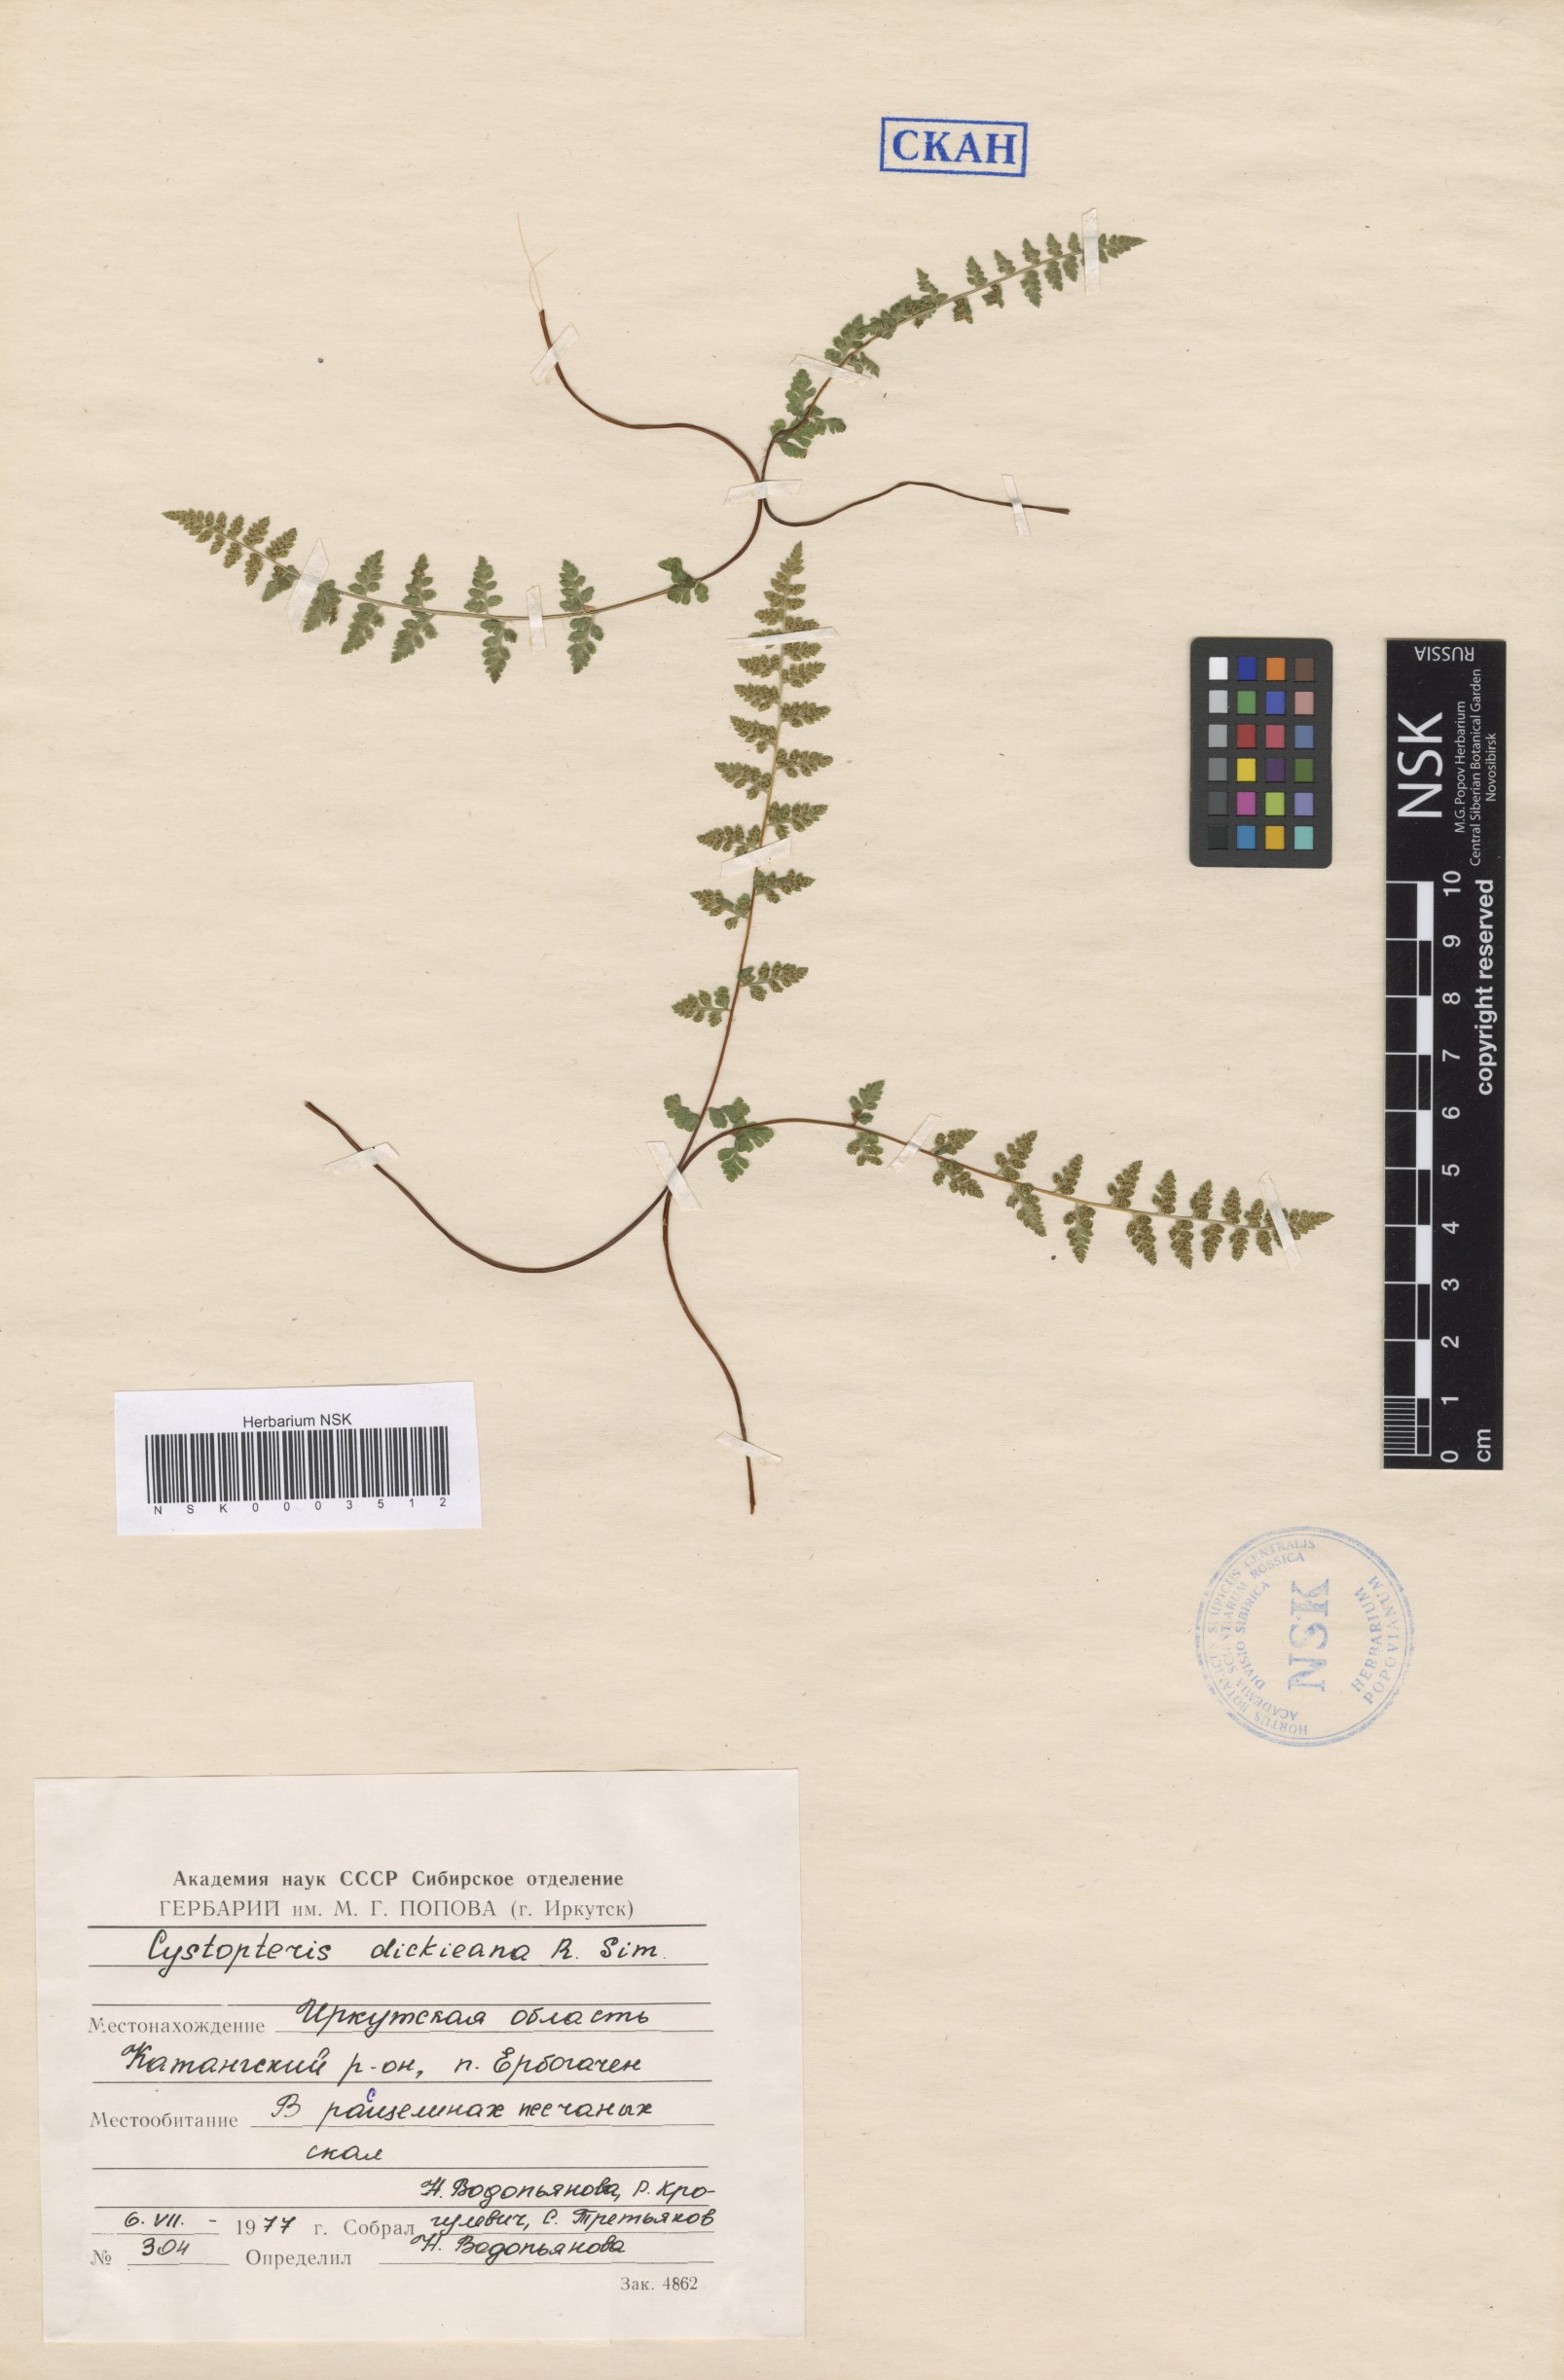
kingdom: Plantae
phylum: Tracheophyta
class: Polypodiopsida
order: Polypodiales
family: Cystopteridaceae
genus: Cystopteris
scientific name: Cystopteris dickieana
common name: Dickie's bladder-fern
